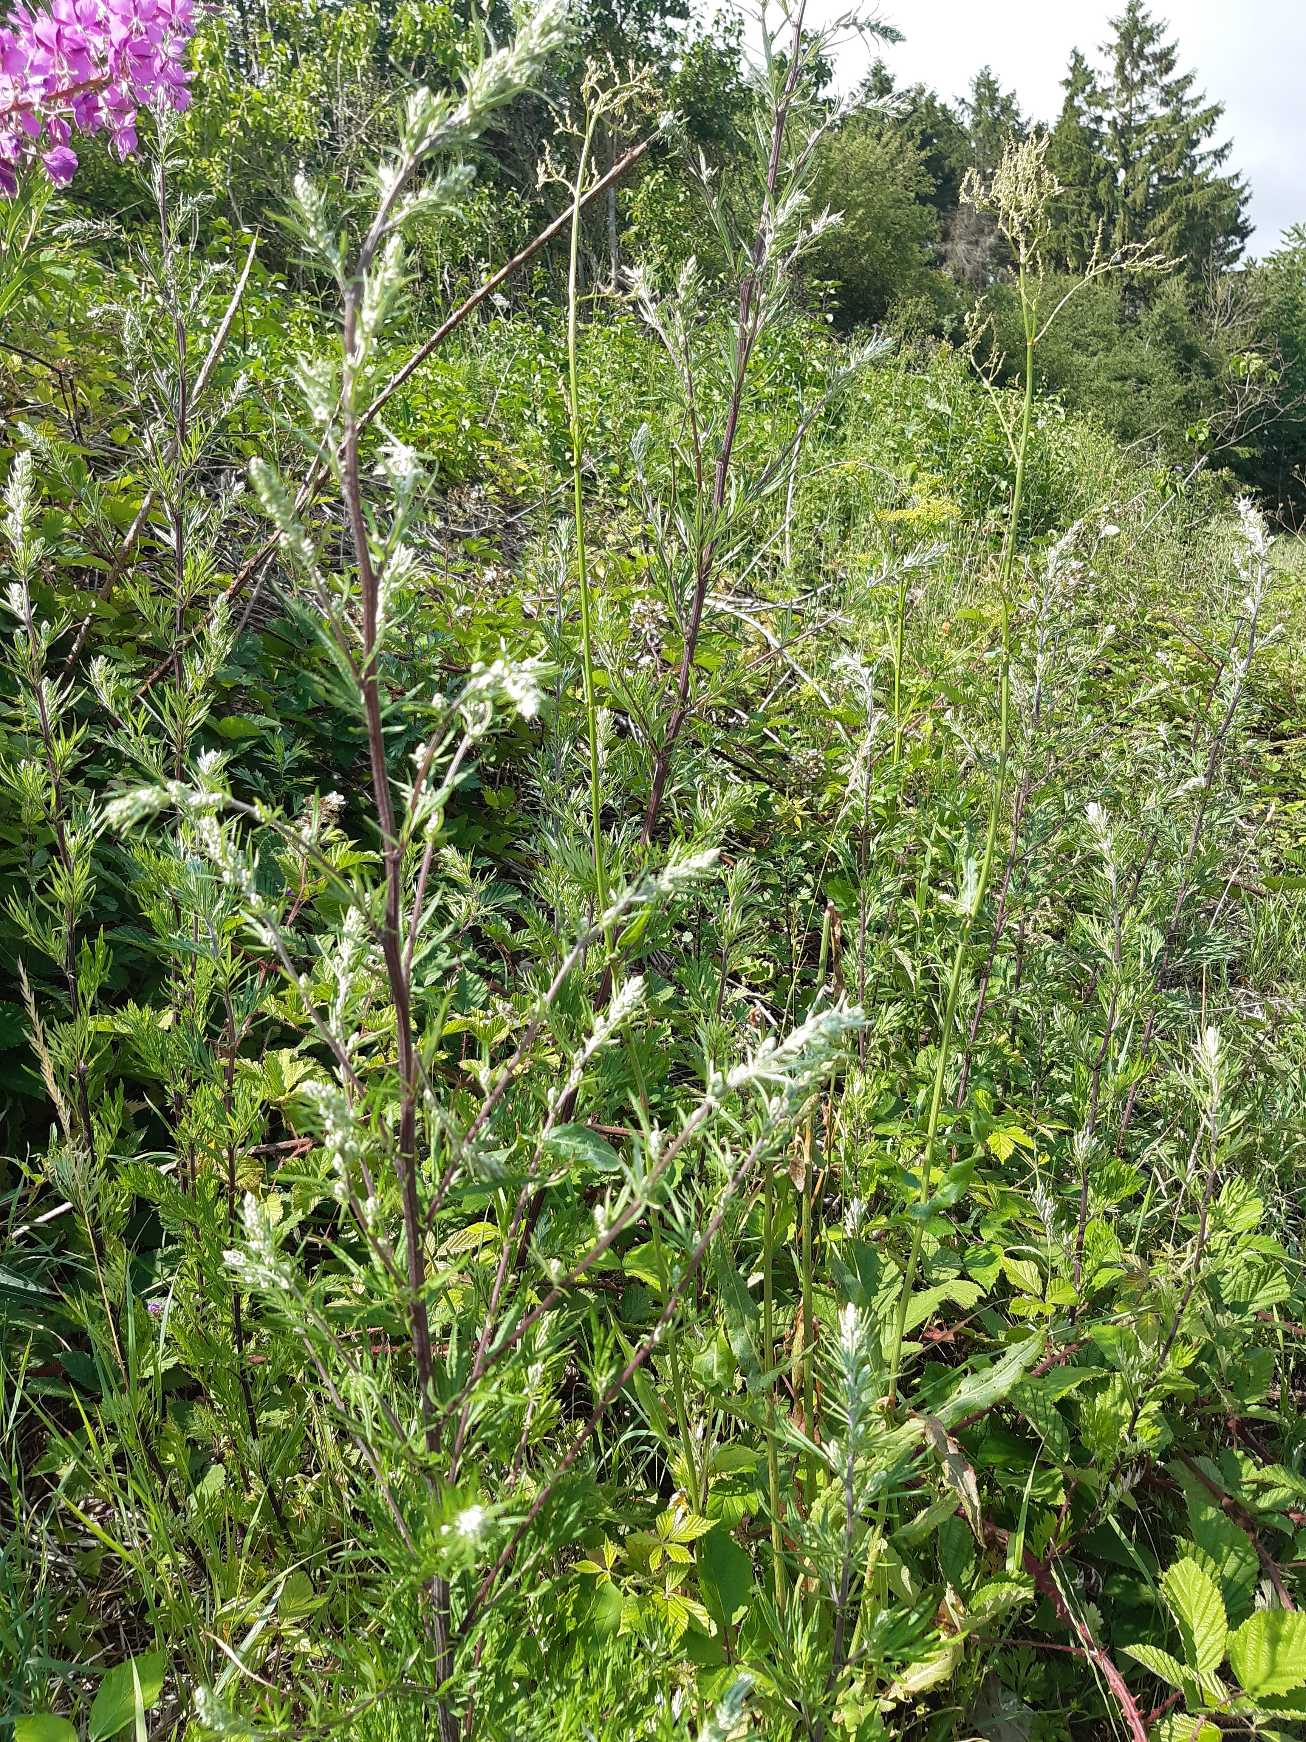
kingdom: Plantae
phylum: Tracheophyta
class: Magnoliopsida
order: Asterales
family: Asteraceae
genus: Artemisia
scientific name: Artemisia vulgaris
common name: Grå-bynke
